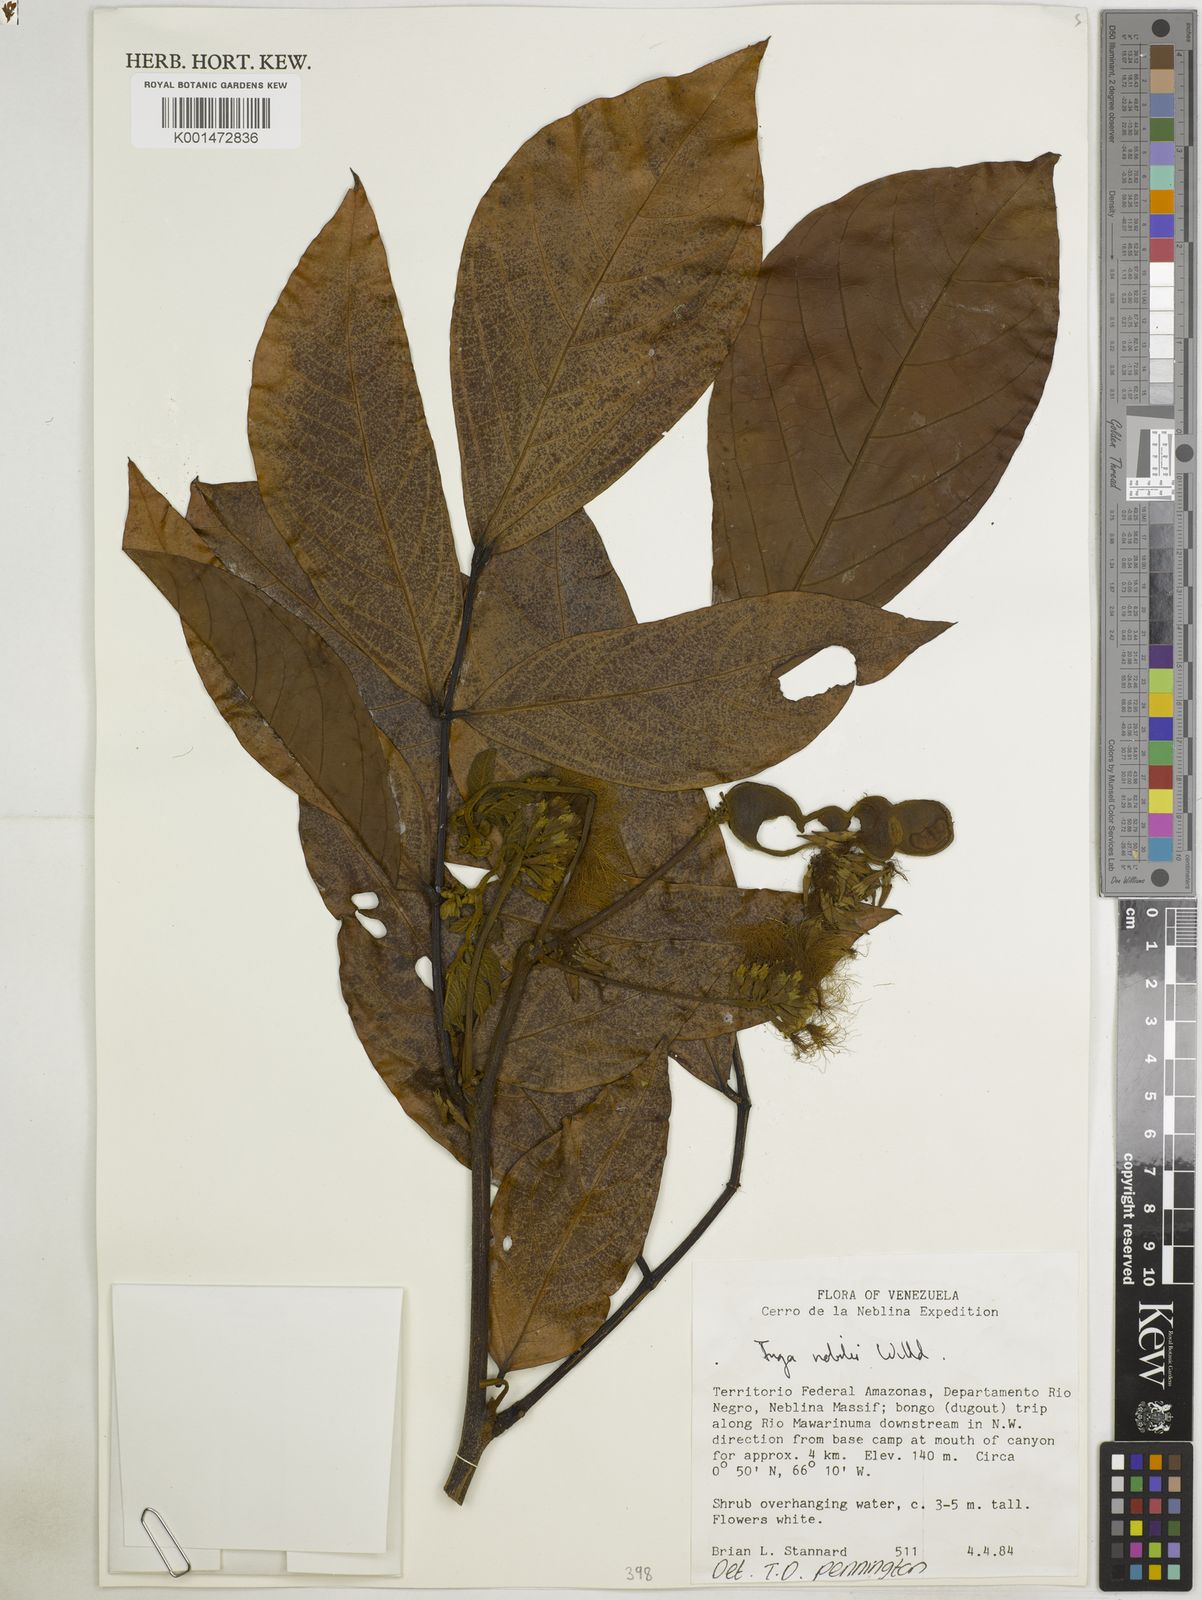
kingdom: Plantae
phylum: Tracheophyta
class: Magnoliopsida
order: Fabales
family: Fabaceae
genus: Inga
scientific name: Inga nobilis
